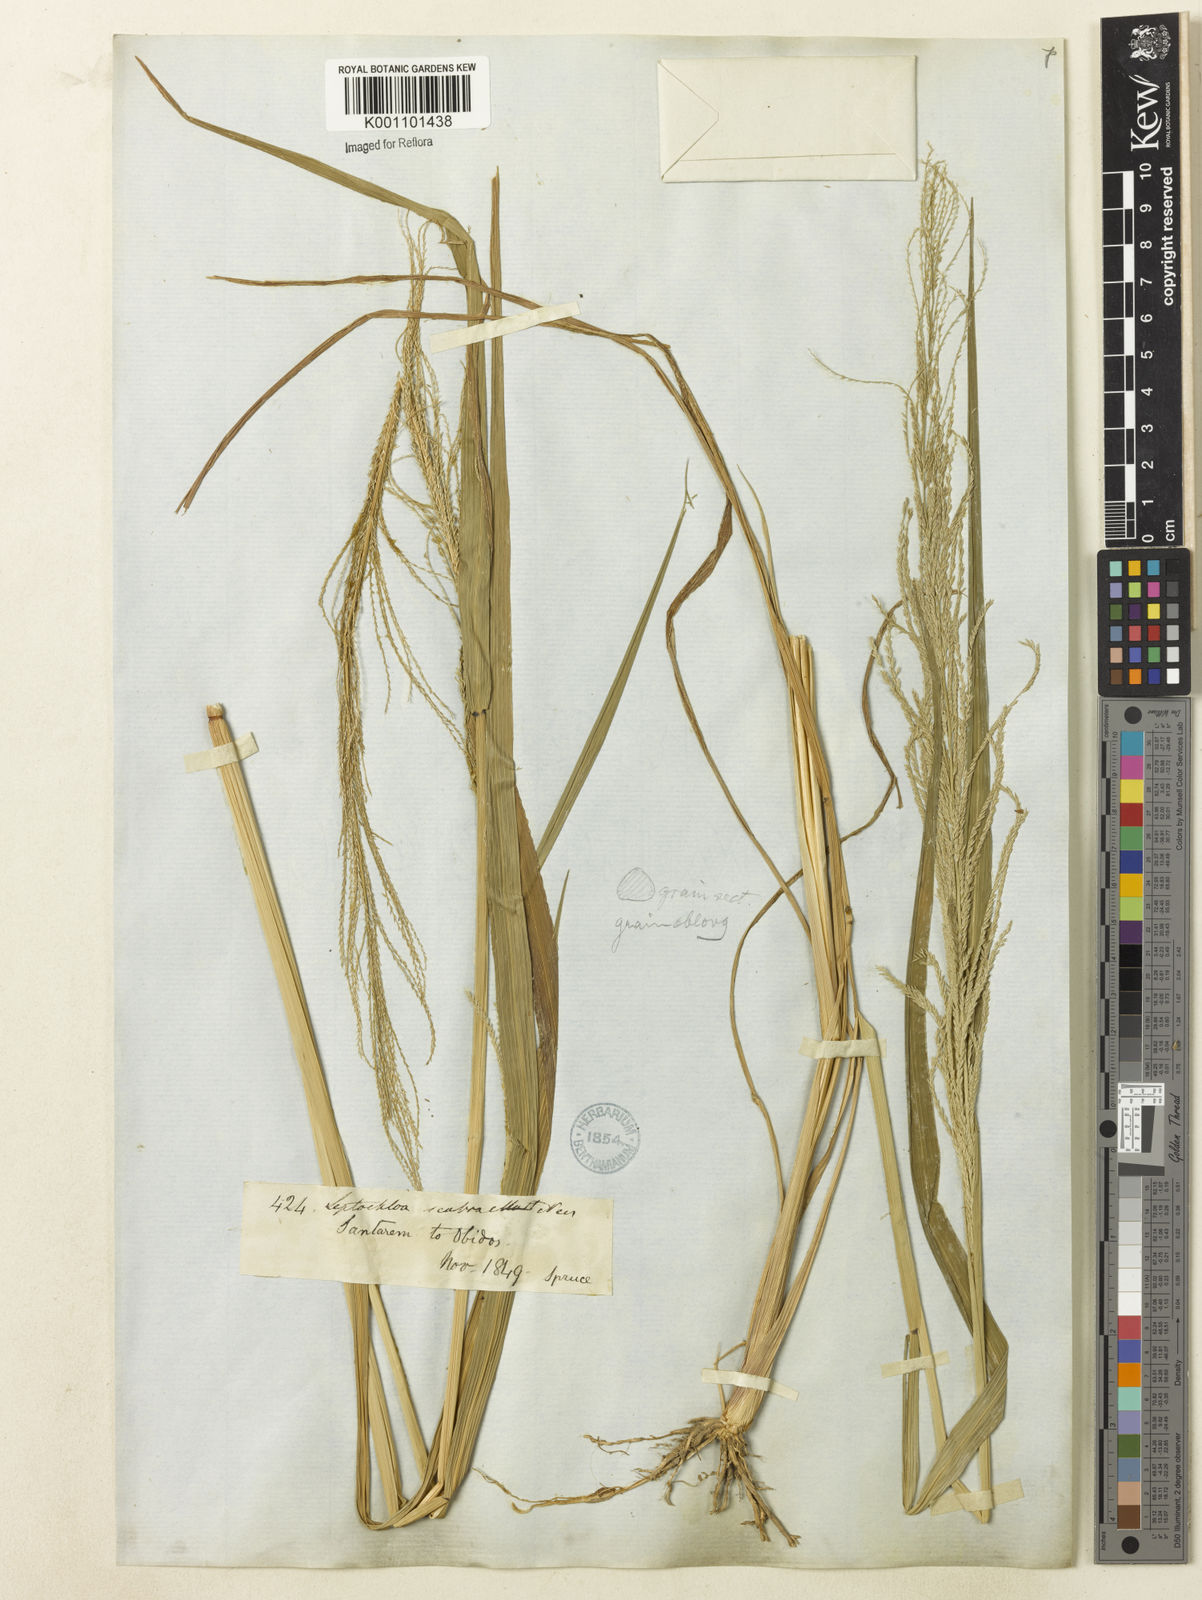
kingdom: Plantae
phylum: Tracheophyta
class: Liliopsida
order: Poales
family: Poaceae
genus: Leptochloa
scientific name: Leptochloa
